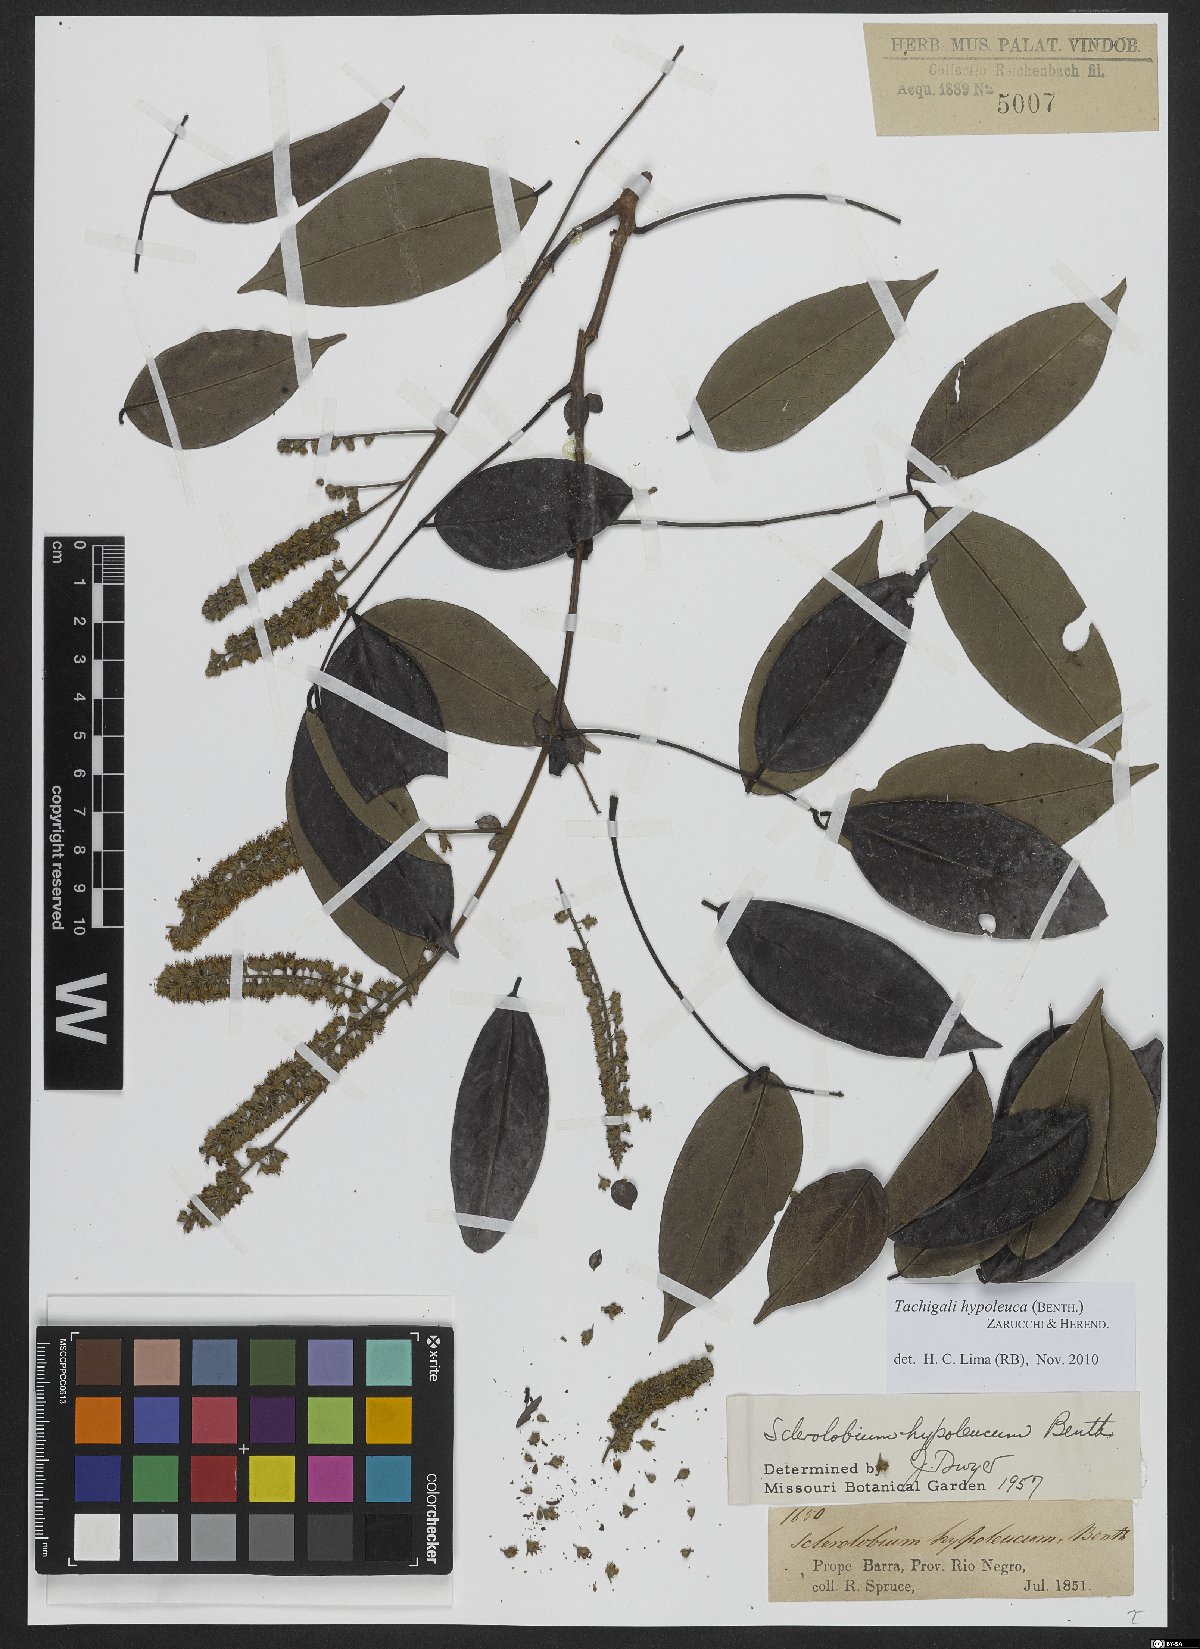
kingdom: Plantae
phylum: Tracheophyta
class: Magnoliopsida
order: Fabales
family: Fabaceae
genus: Tachigali
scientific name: Tachigali hypoleuca
